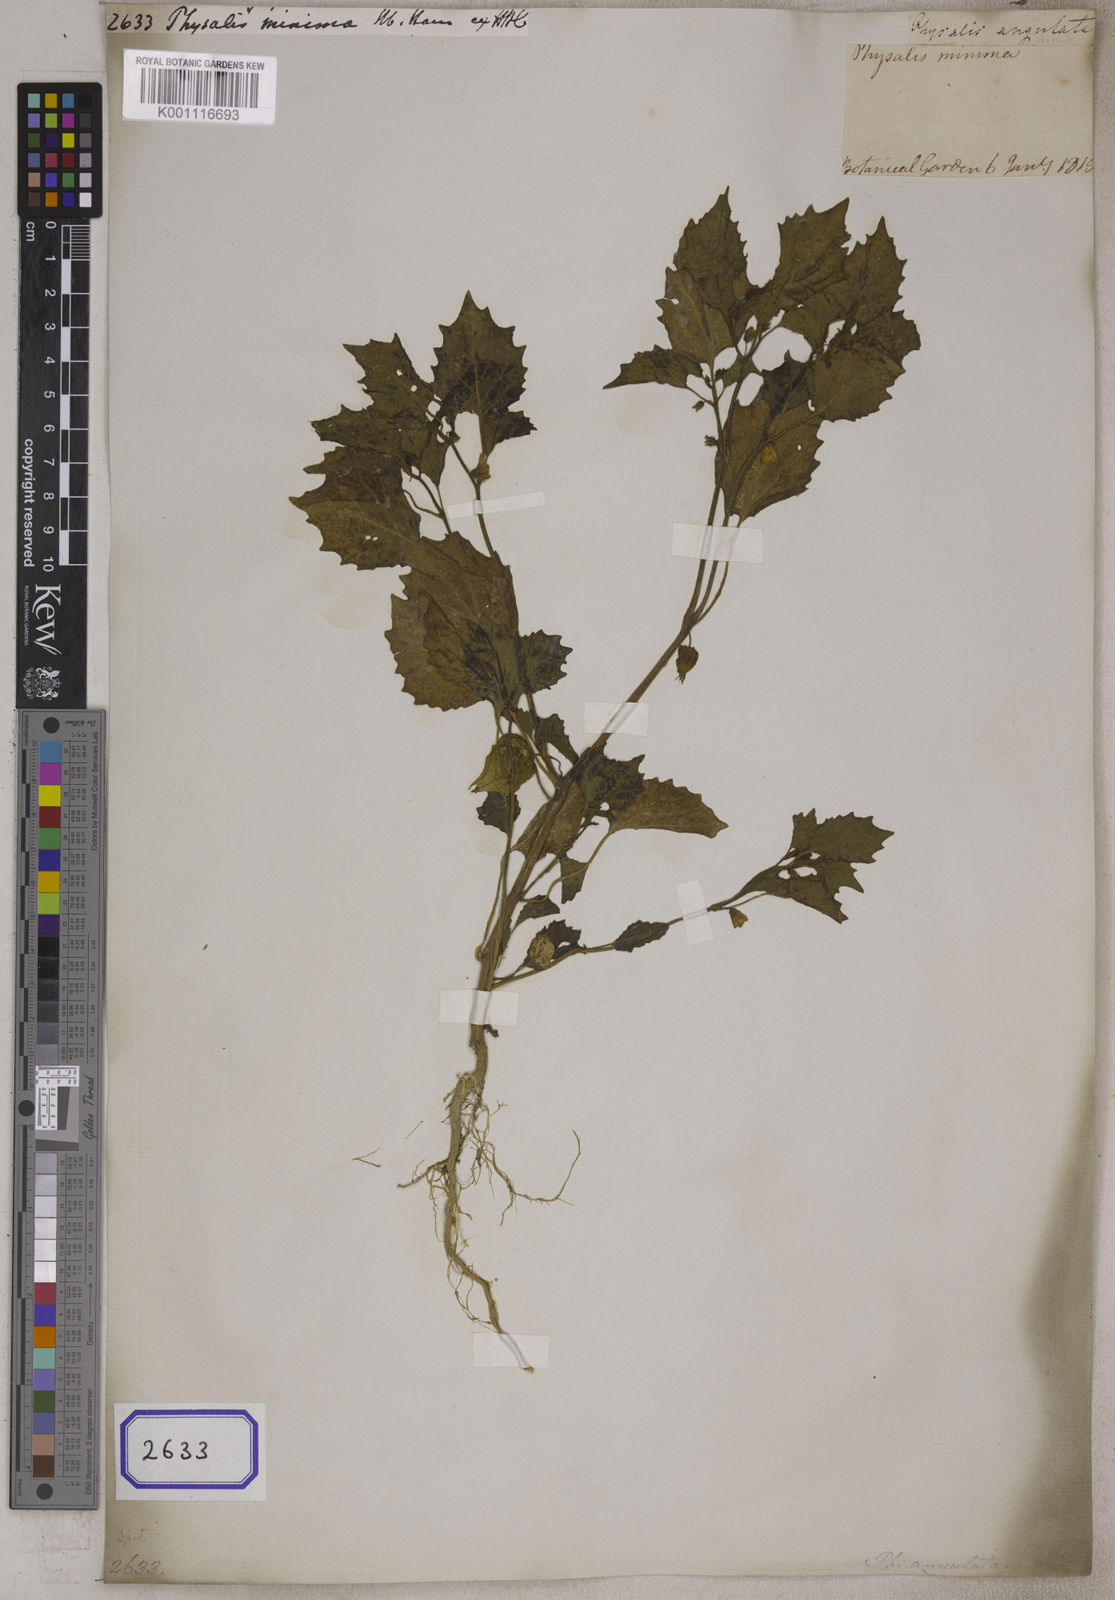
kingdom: Plantae
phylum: Tracheophyta
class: Magnoliopsida
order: Solanales
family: Solanaceae
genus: Physalis
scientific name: Physalis angulata
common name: Angular winter-cherry
